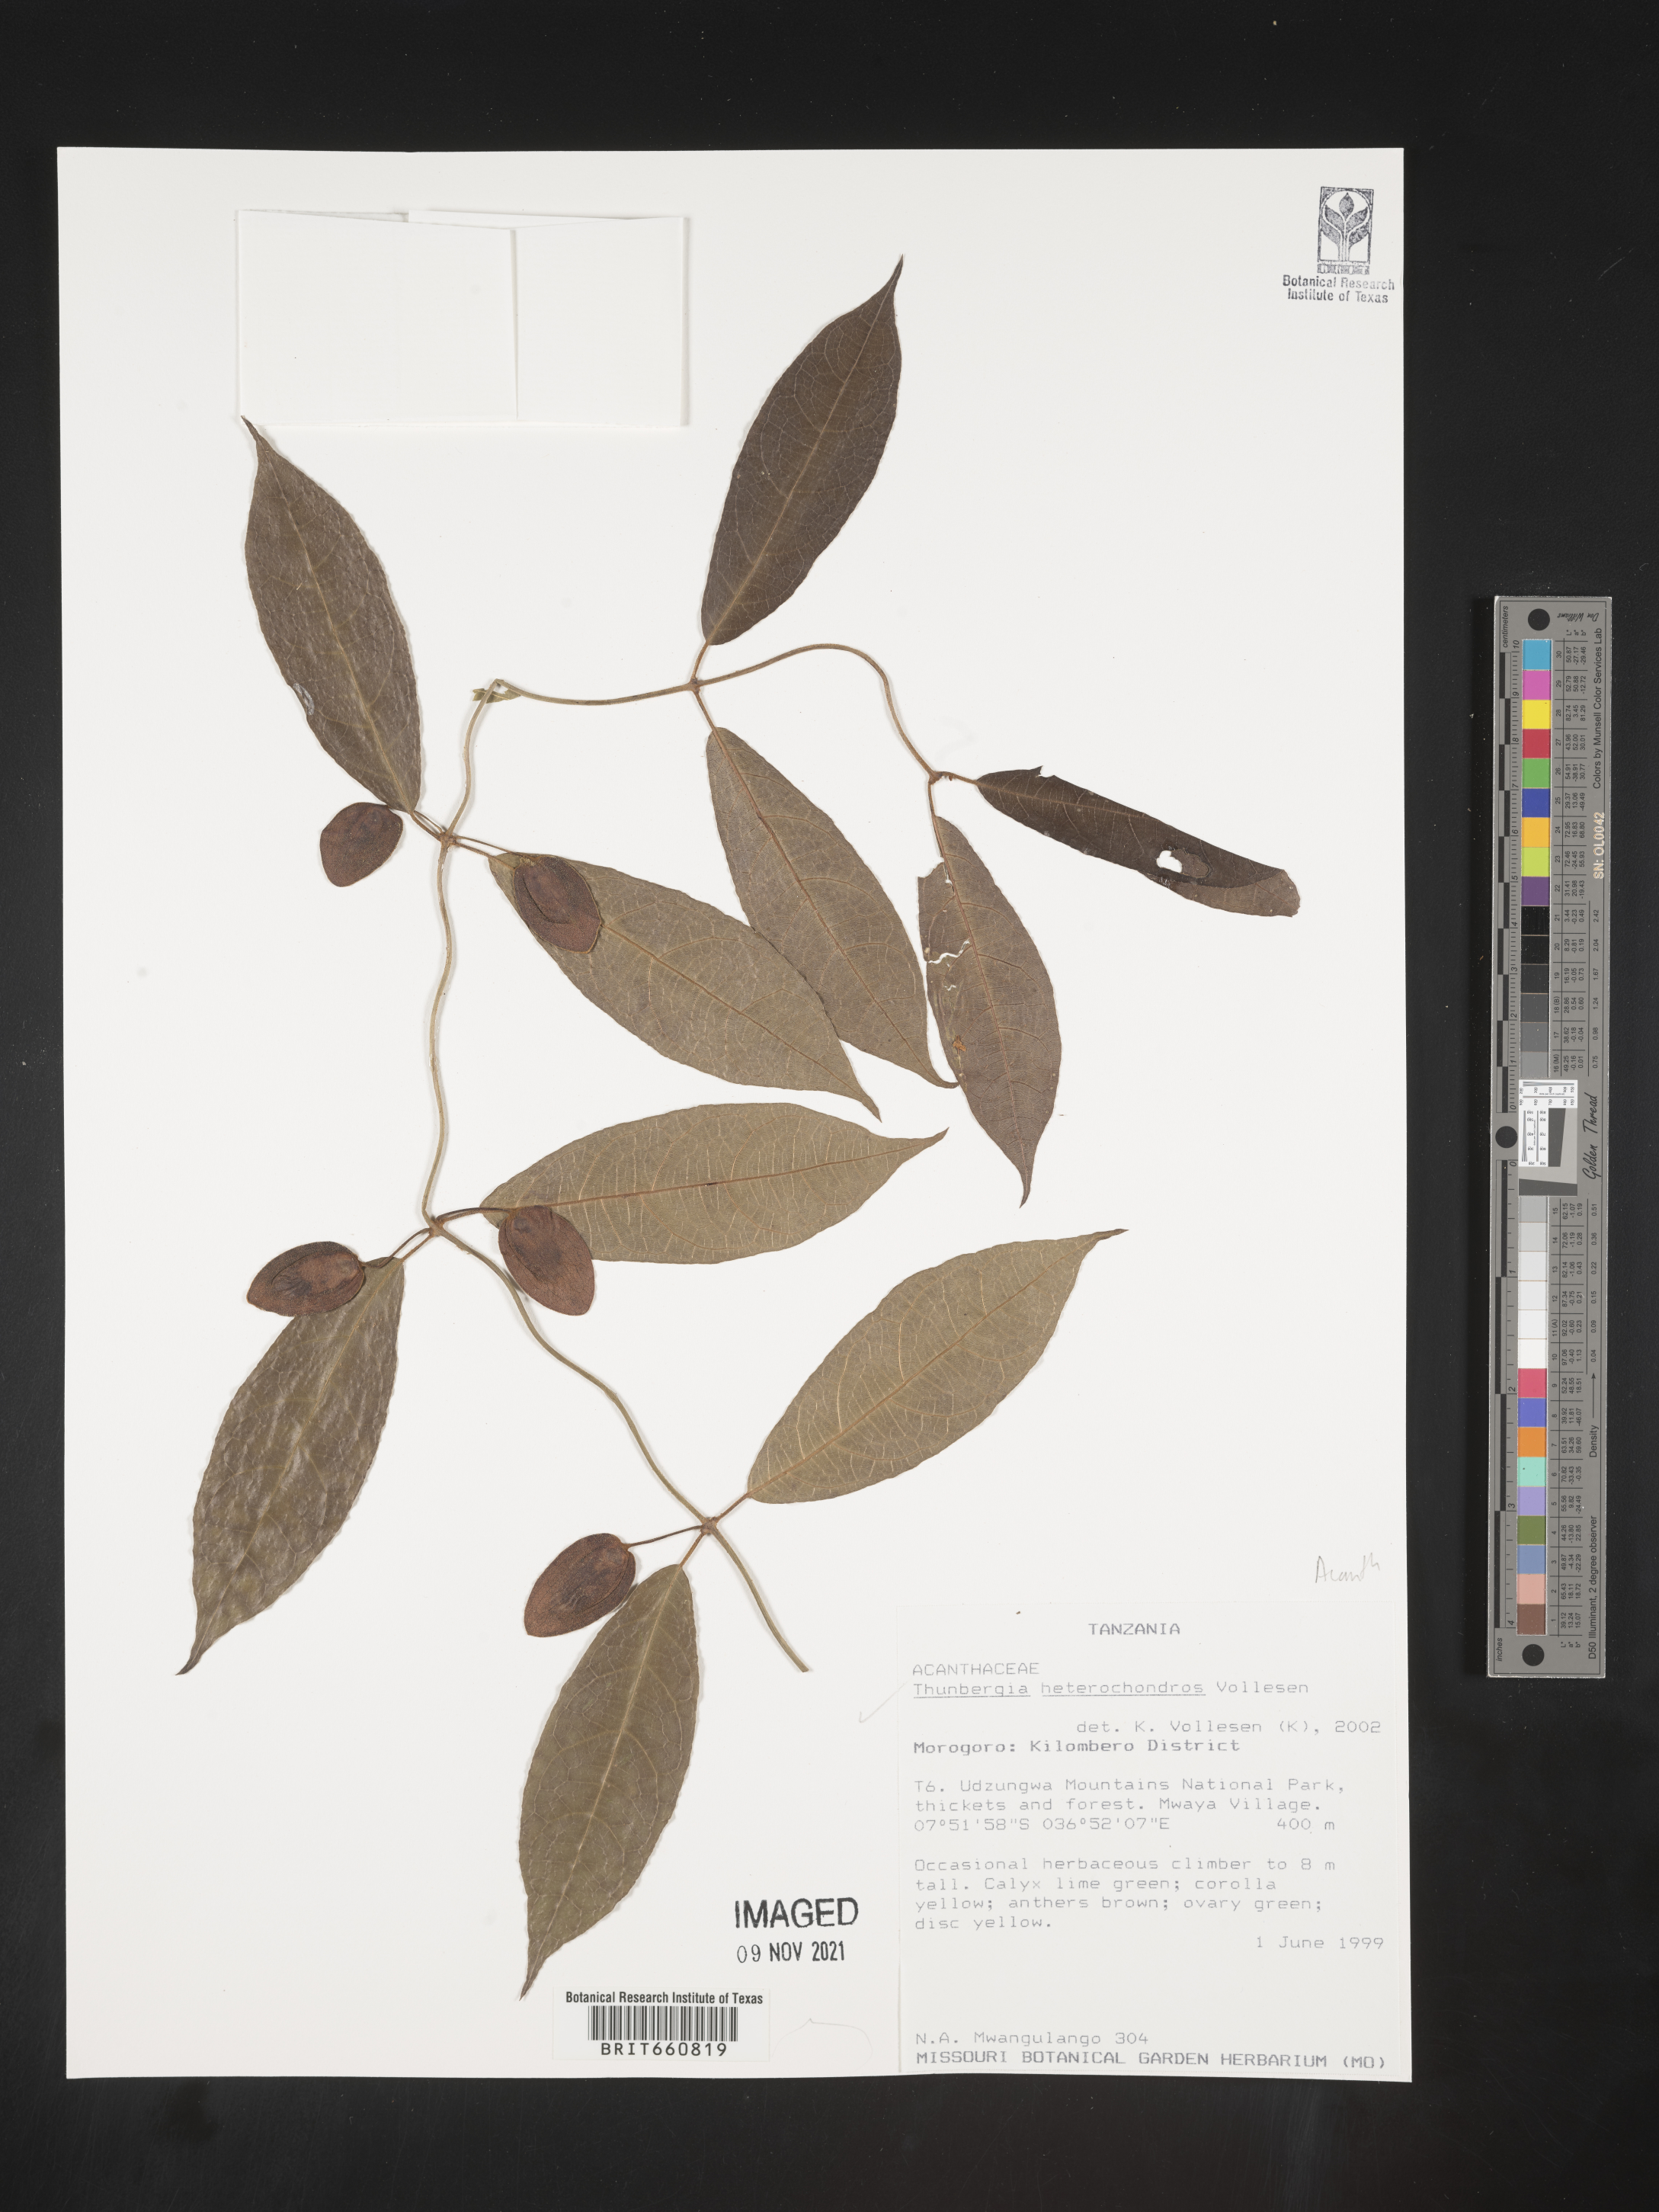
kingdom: Plantae
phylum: Tracheophyta
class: Magnoliopsida
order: Lamiales
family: Acanthaceae
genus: Thunbergia
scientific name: Thunbergia
